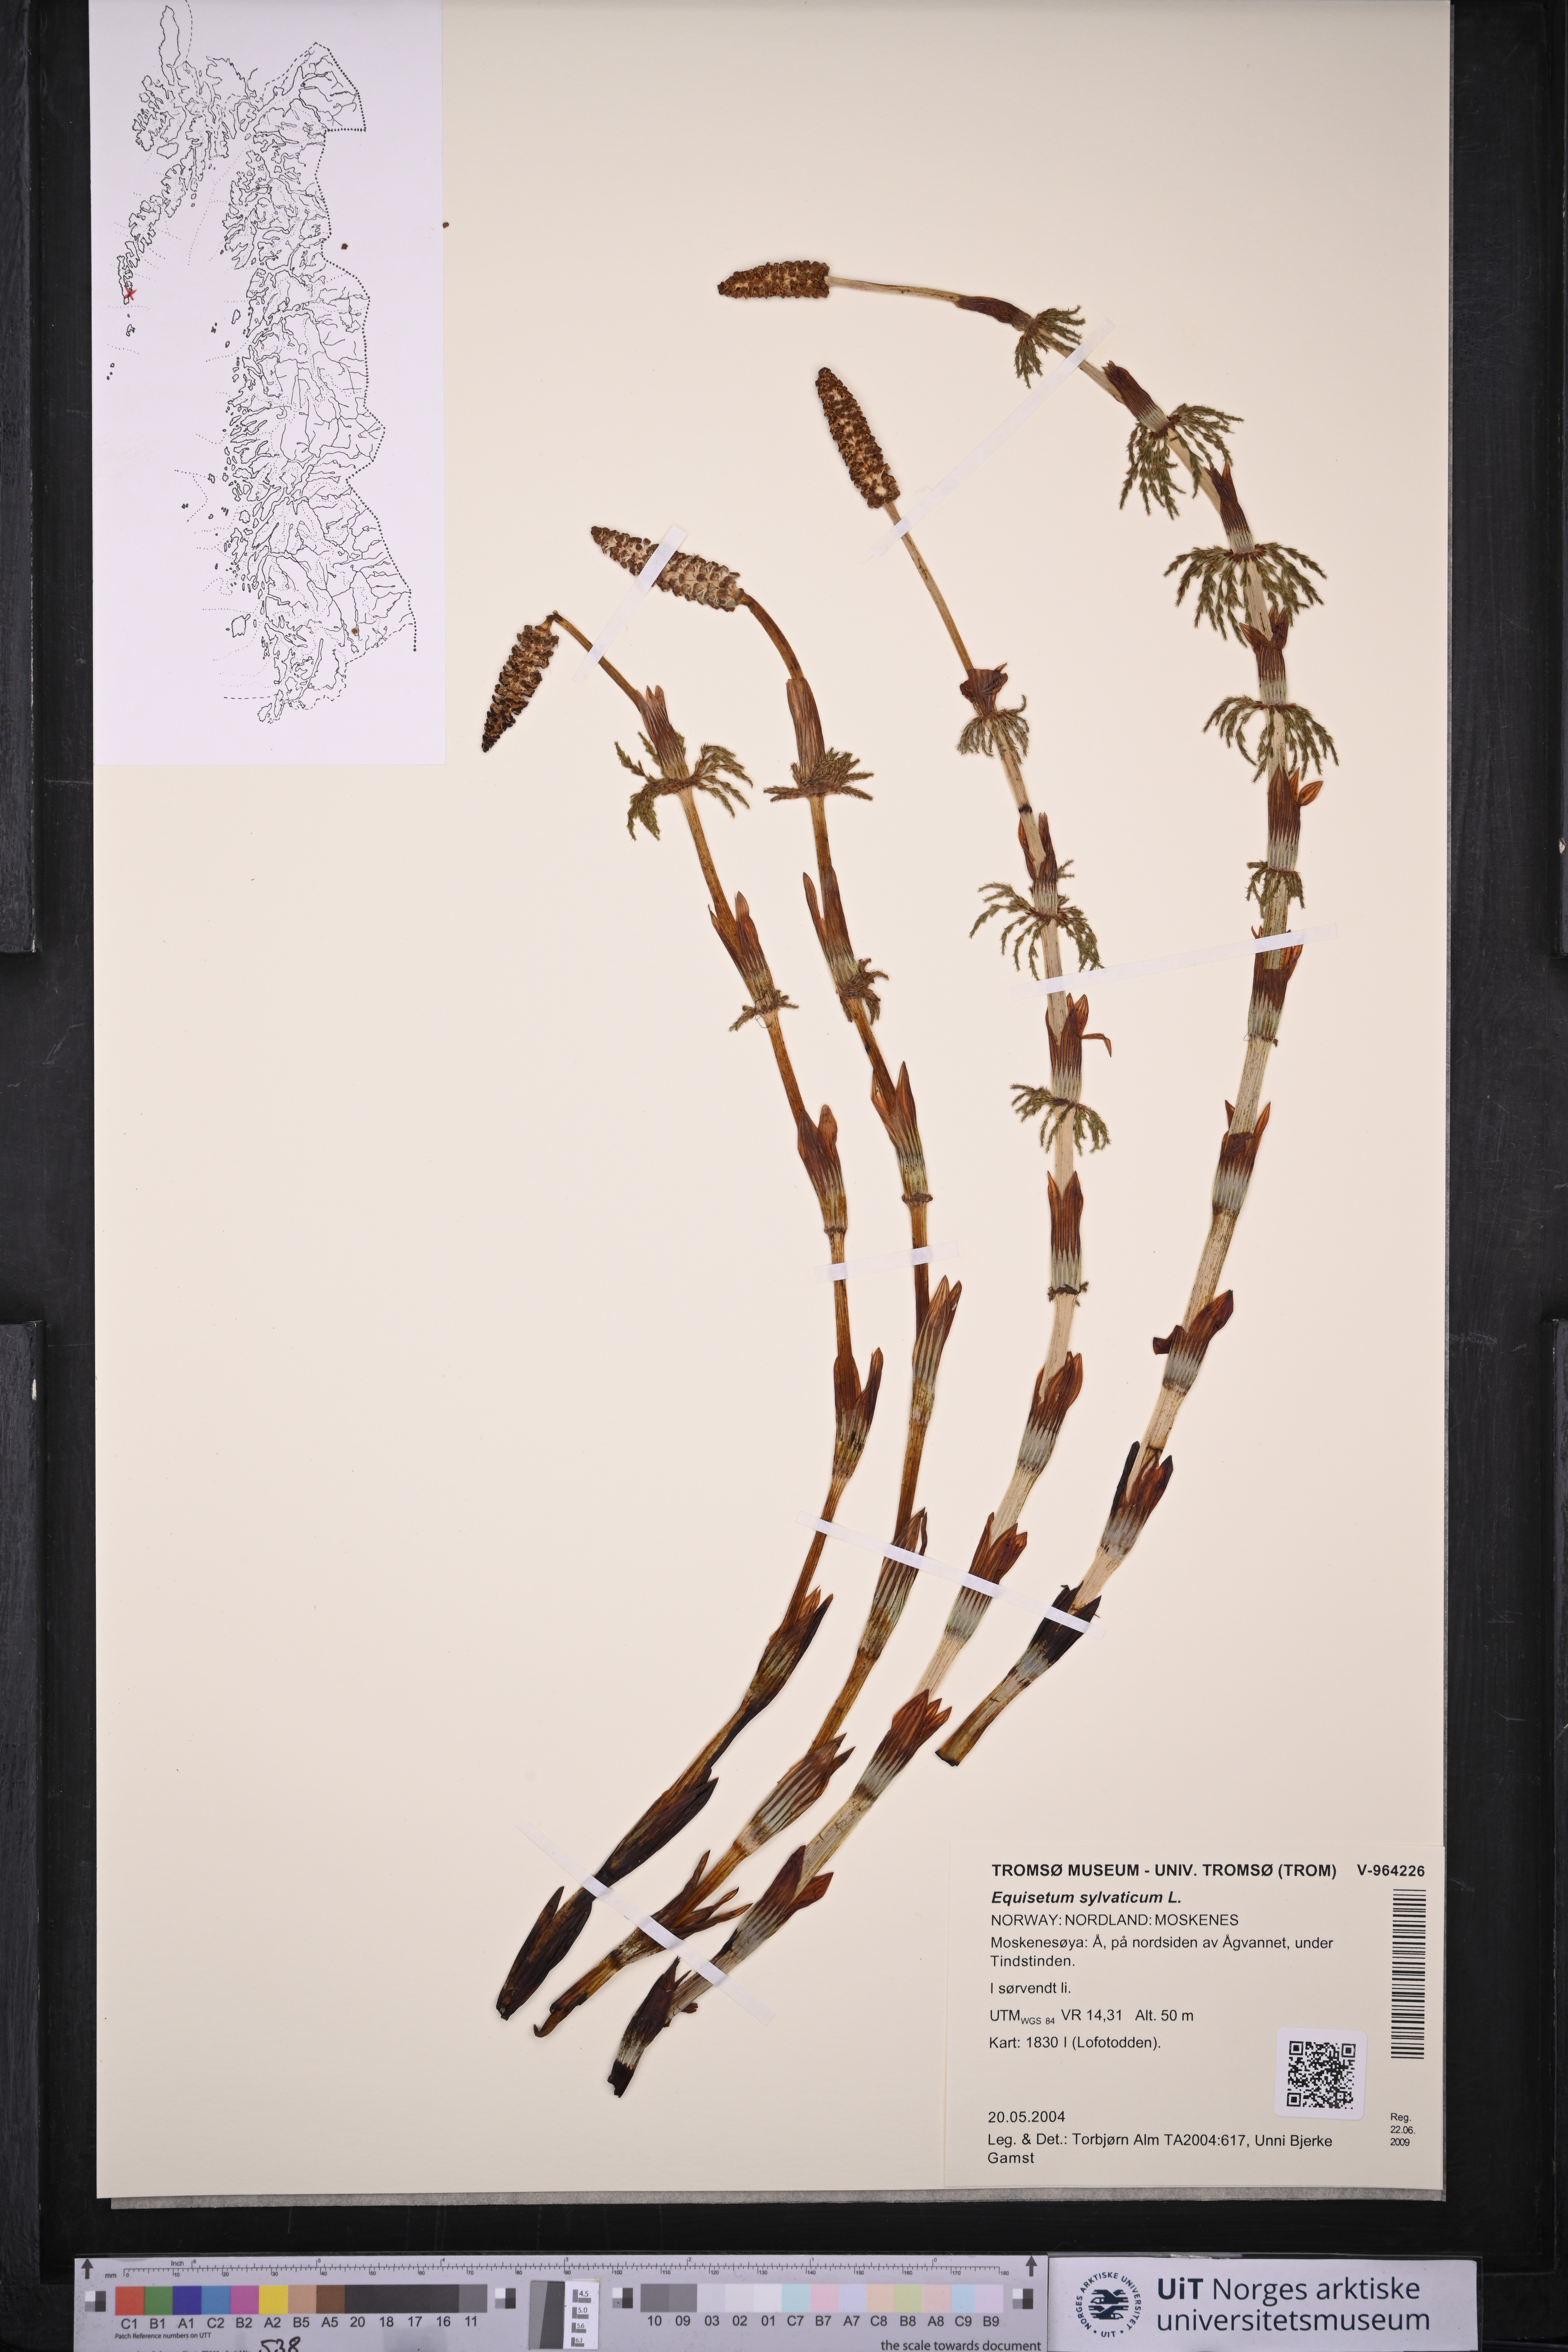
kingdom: Plantae
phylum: Tracheophyta
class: Polypodiopsida
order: Equisetales
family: Equisetaceae
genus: Equisetum
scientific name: Equisetum sylvaticum
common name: Wood horsetail
